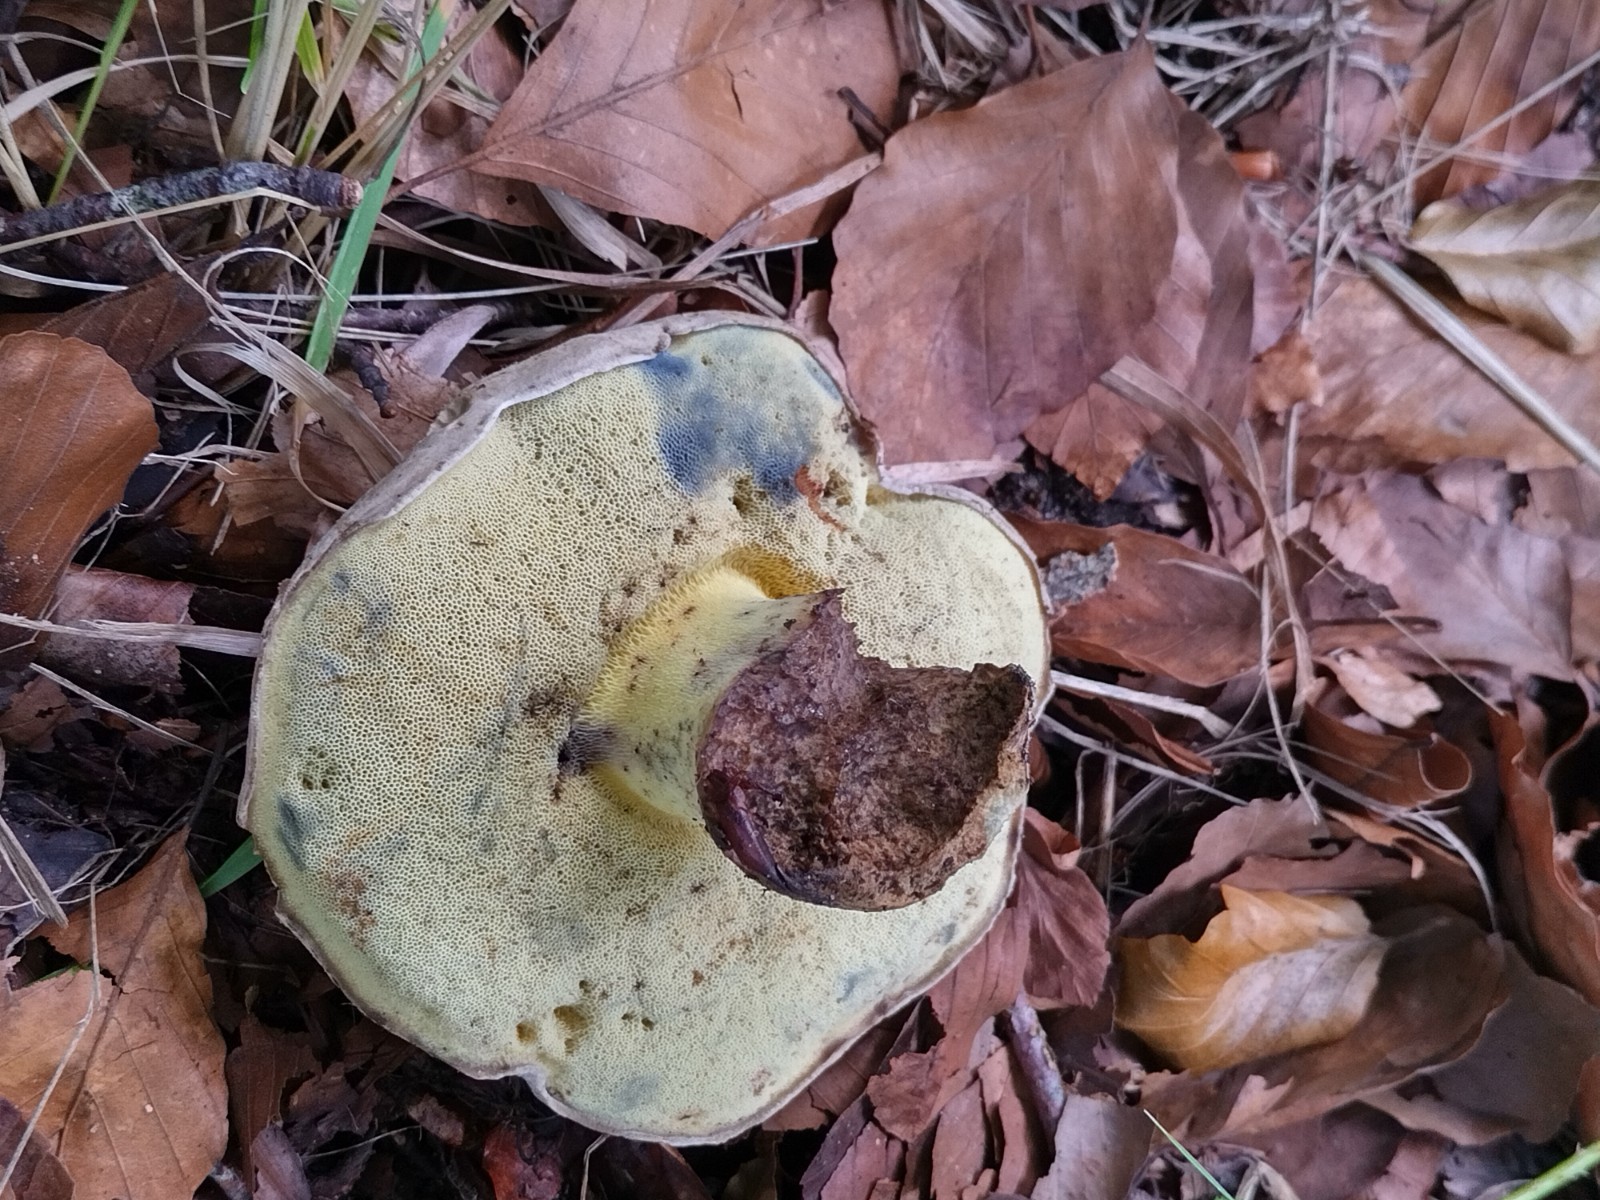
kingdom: Fungi
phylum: Basidiomycota
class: Agaricomycetes
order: Boletales
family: Boletaceae
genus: Caloboletus
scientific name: Caloboletus radicans
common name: rod-rørhat
